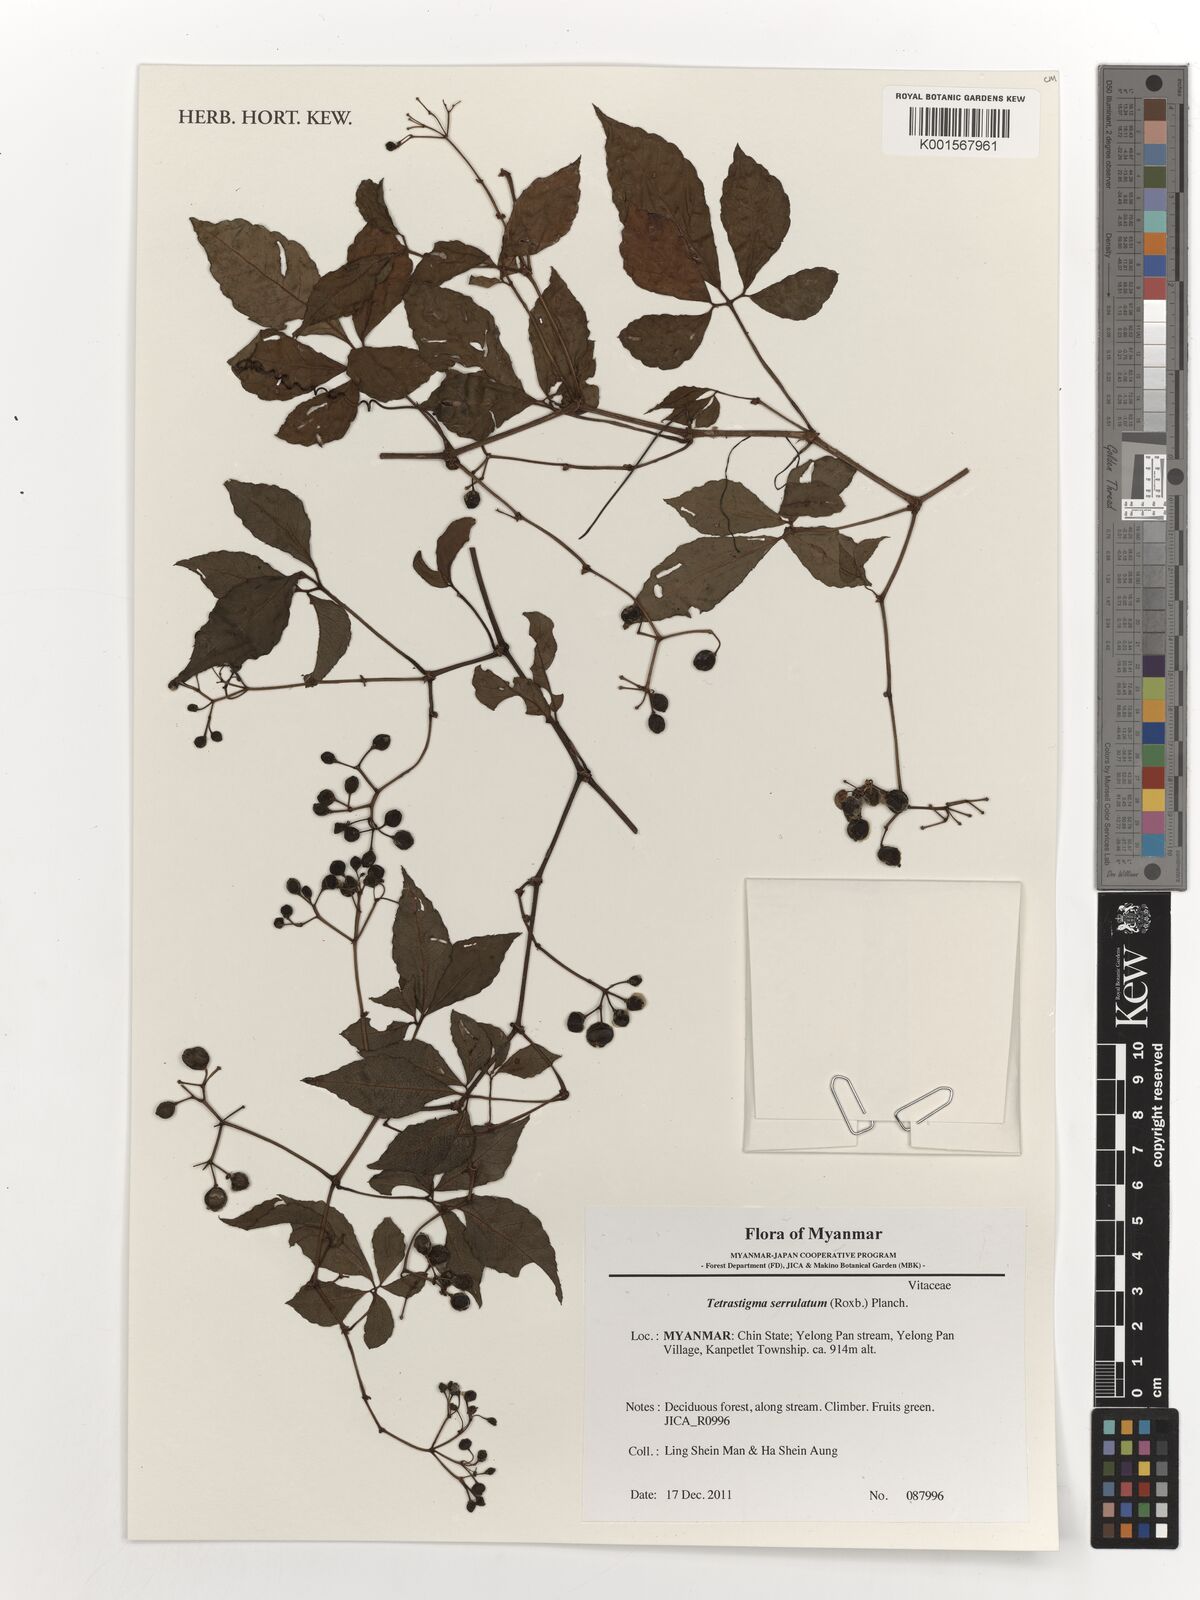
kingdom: Plantae
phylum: Tracheophyta
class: Magnoliopsida
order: Vitales
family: Vitaceae
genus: Tetrastigma
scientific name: Tetrastigma serrulatum
